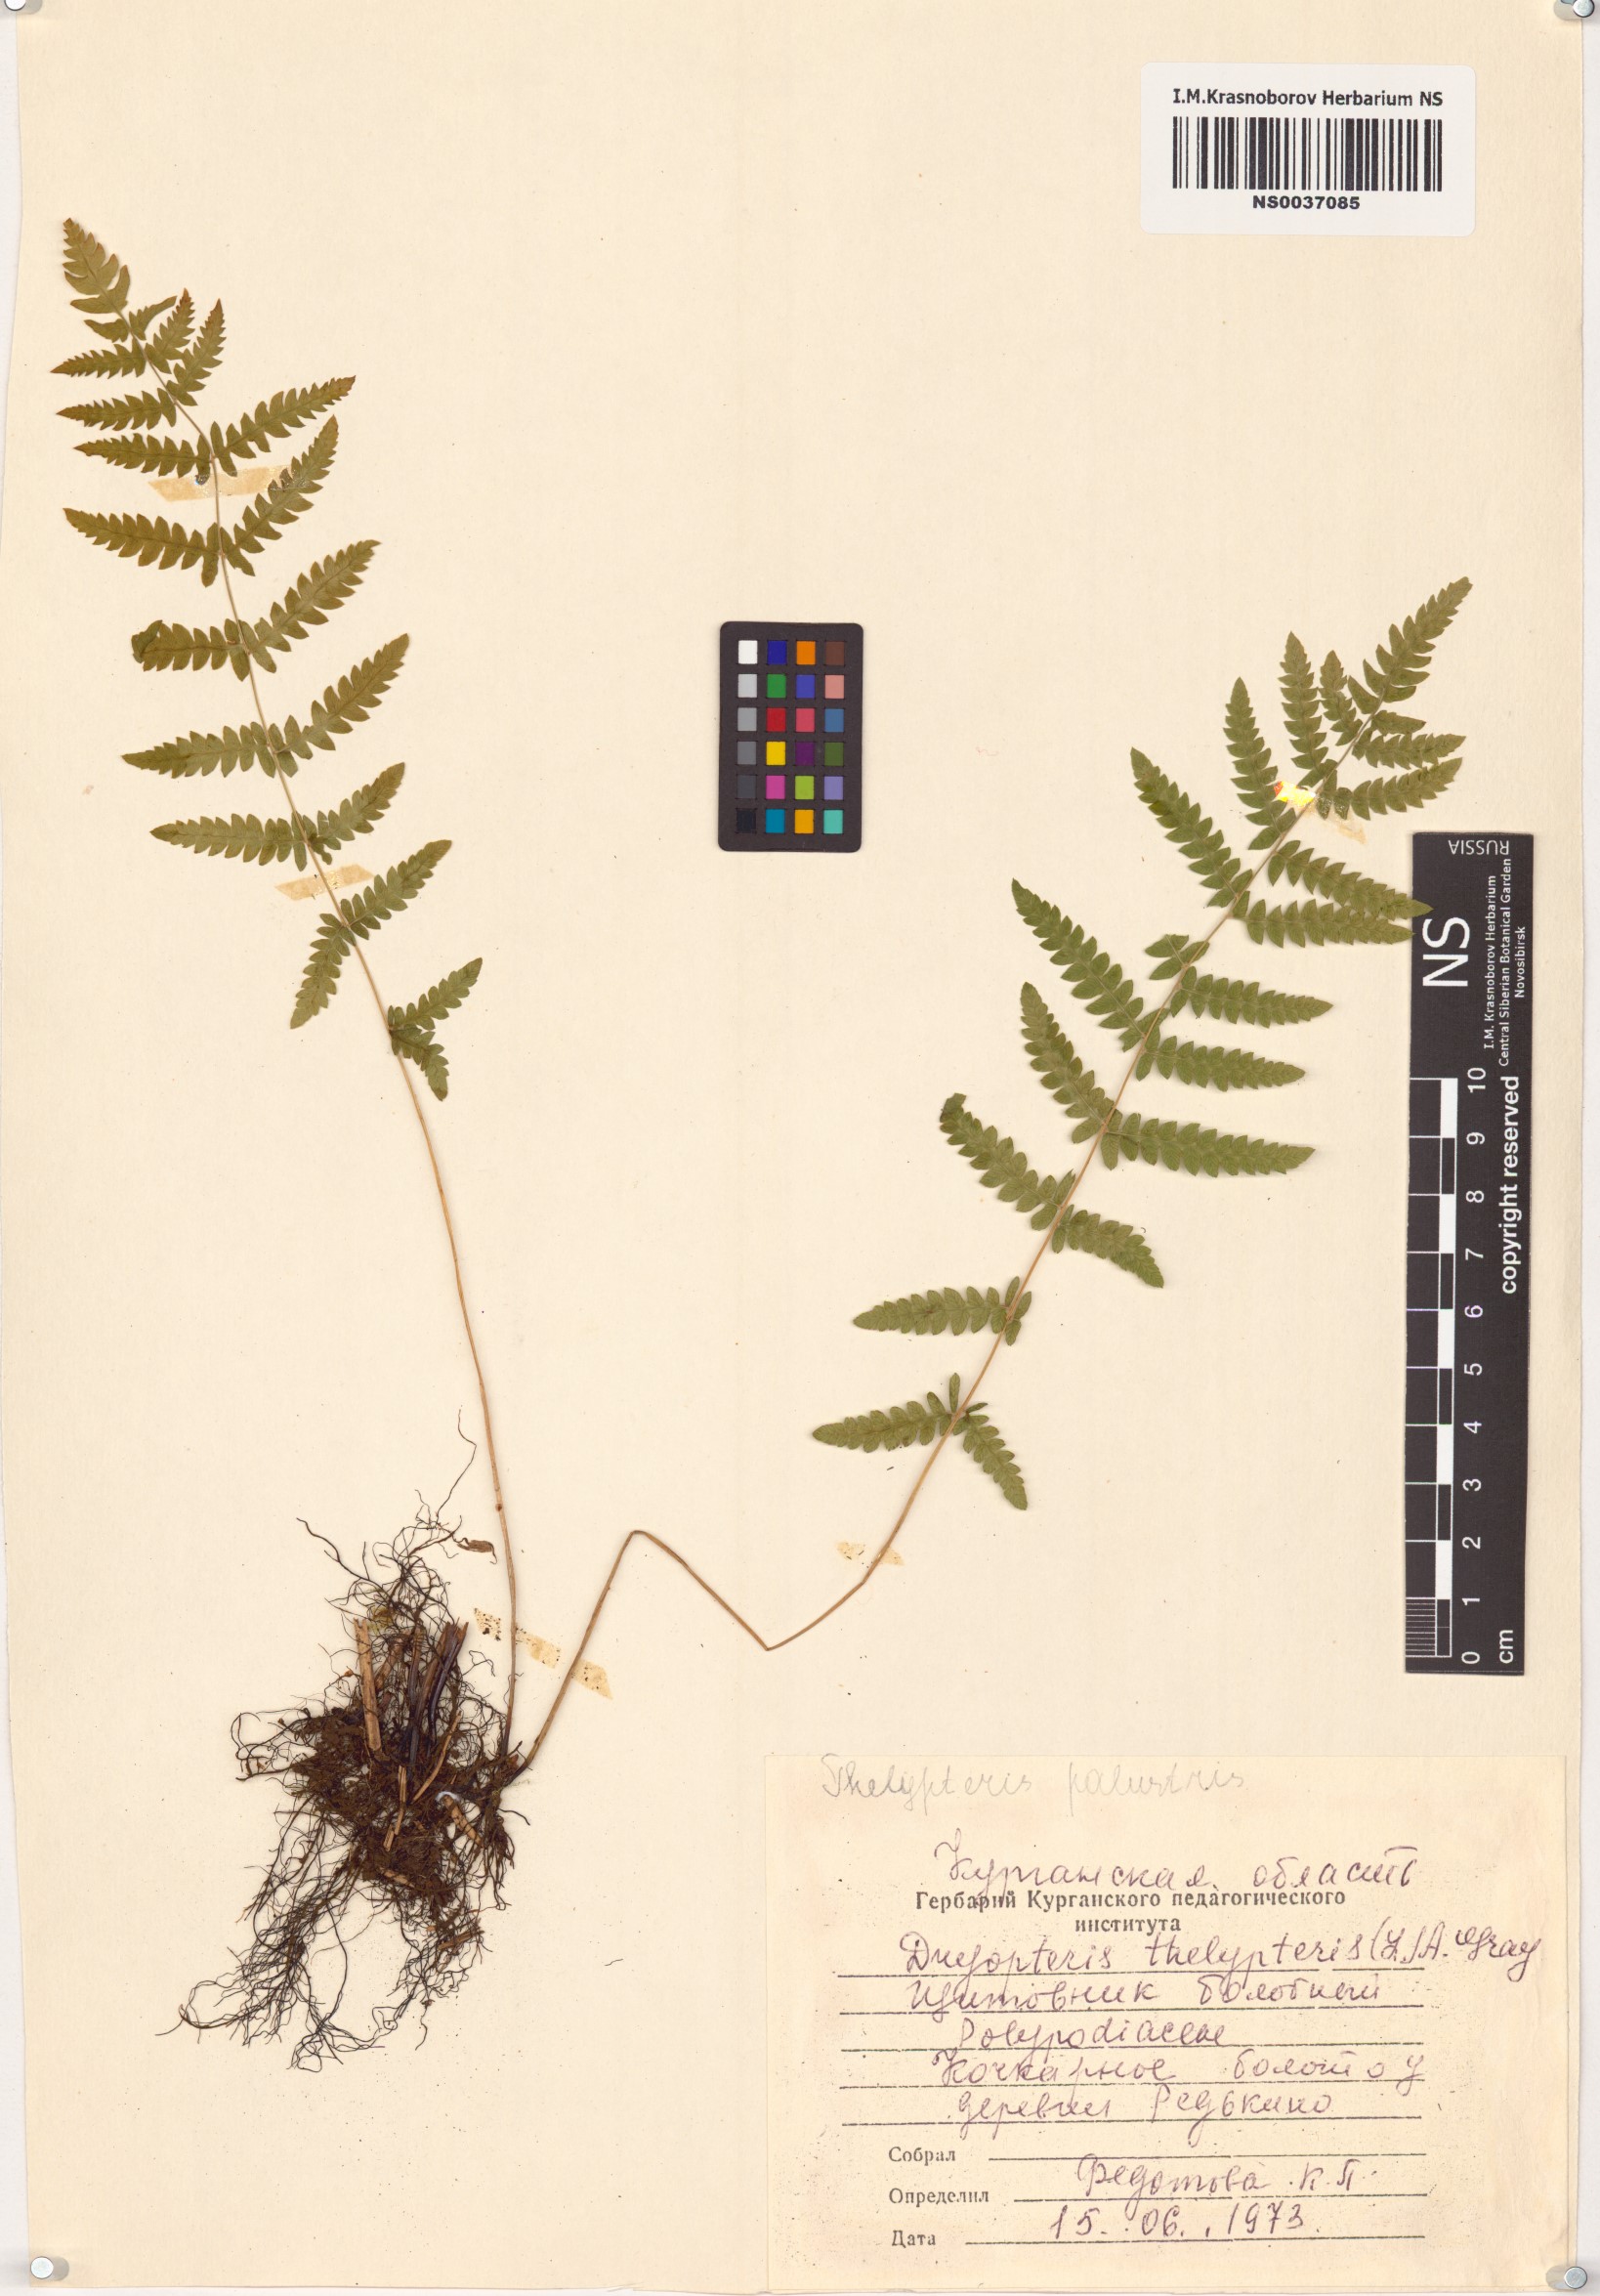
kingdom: Plantae
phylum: Tracheophyta
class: Polypodiopsida
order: Polypodiales
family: Thelypteridaceae
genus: Thelypteris
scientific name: Thelypteris palustris
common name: Marsh fern
